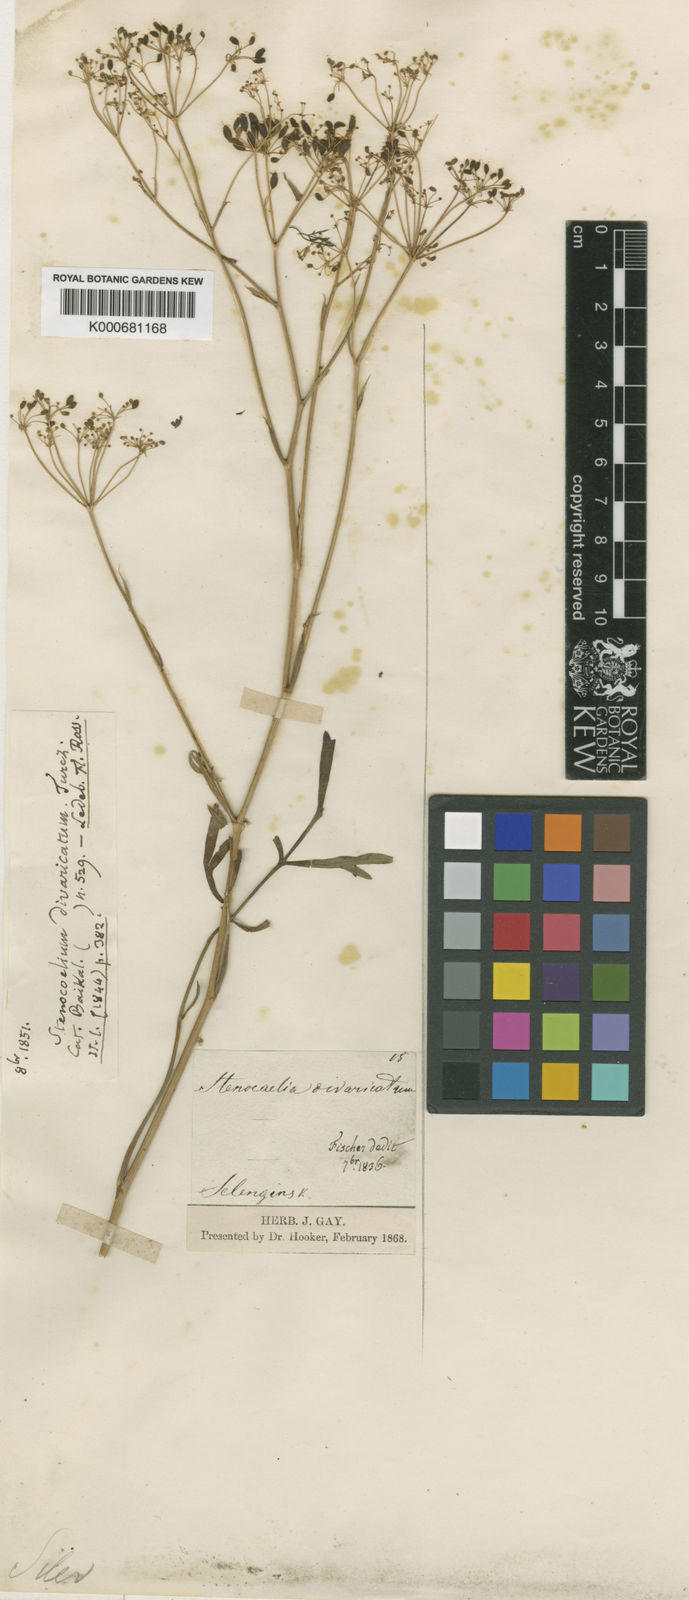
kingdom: Plantae
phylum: Tracheophyta
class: Magnoliopsida
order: Apiales
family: Apiaceae
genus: Saposhnikovia
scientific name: Saposhnikovia divaricata
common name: Siler
